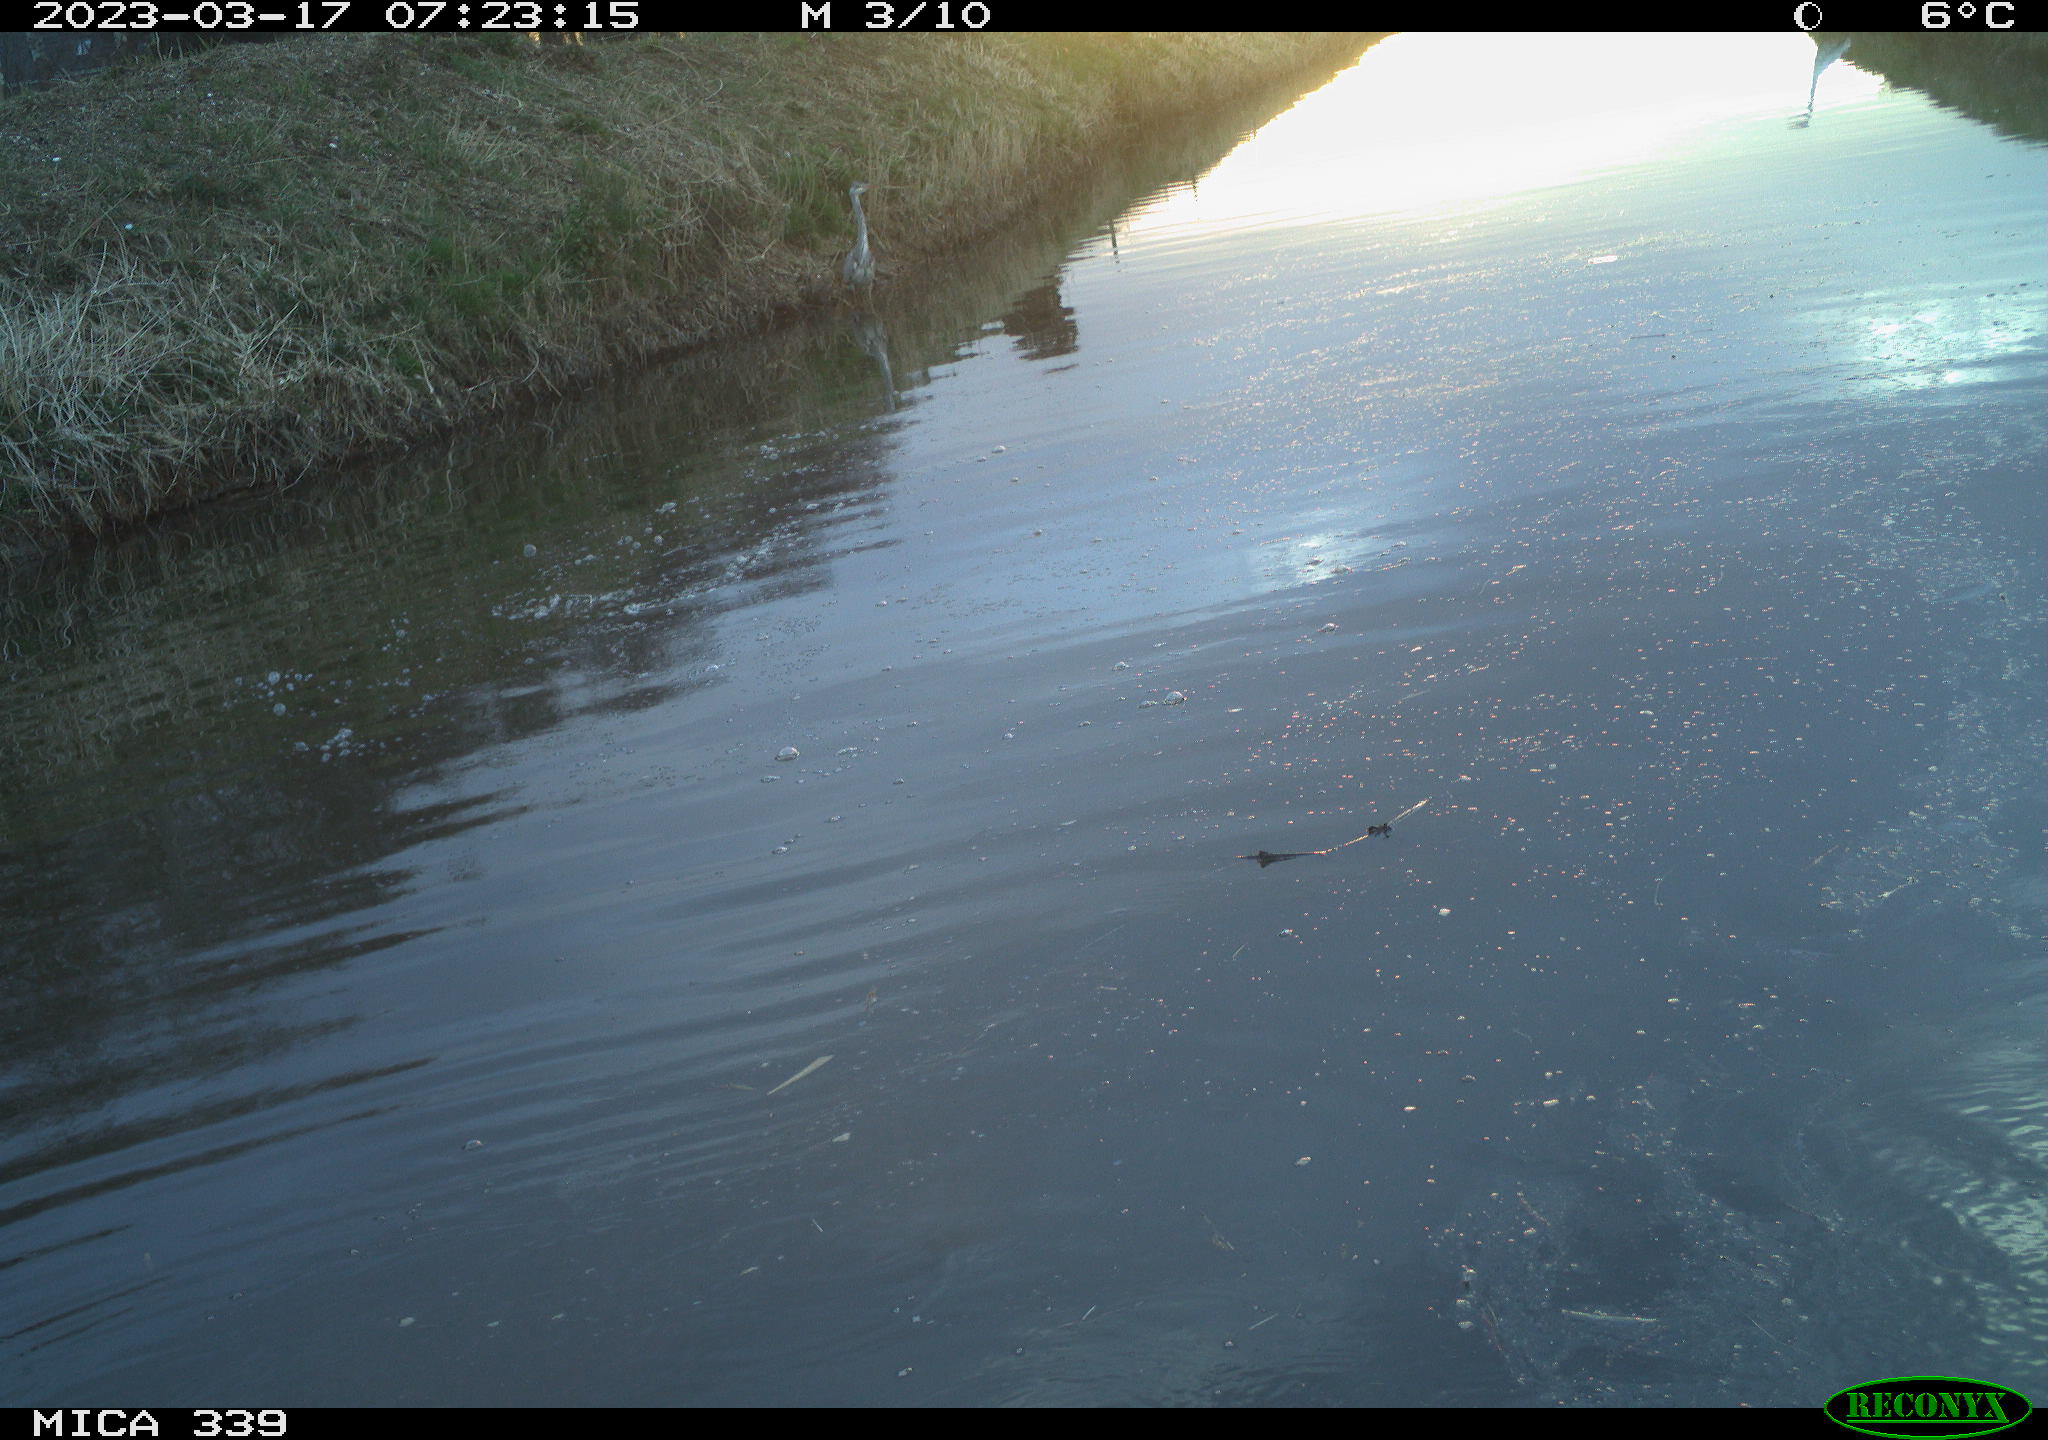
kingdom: Animalia
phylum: Chordata
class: Aves
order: Pelecaniformes
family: Ardeidae
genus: Ardea
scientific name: Ardea cinerea
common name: Grey heron
